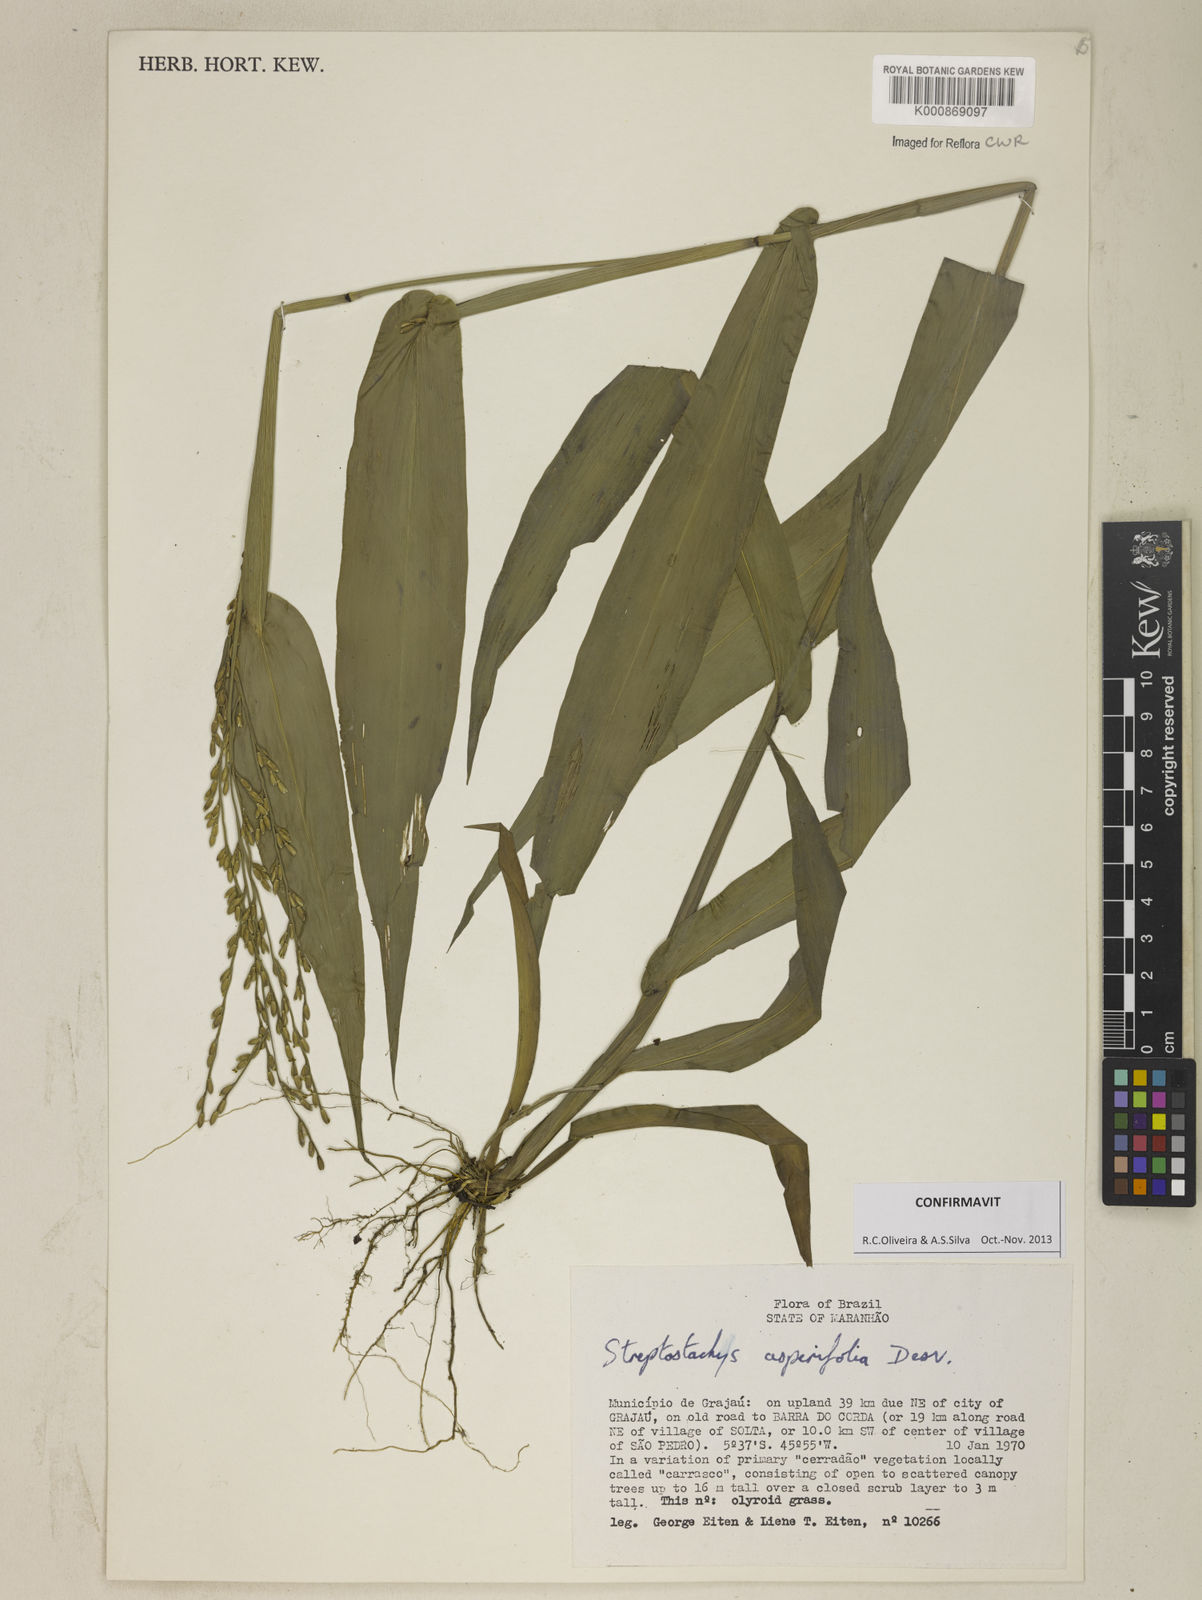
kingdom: Plantae
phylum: Tracheophyta
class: Liliopsida
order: Poales
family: Poaceae
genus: Streptostachys
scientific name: Streptostachys asperifolia
